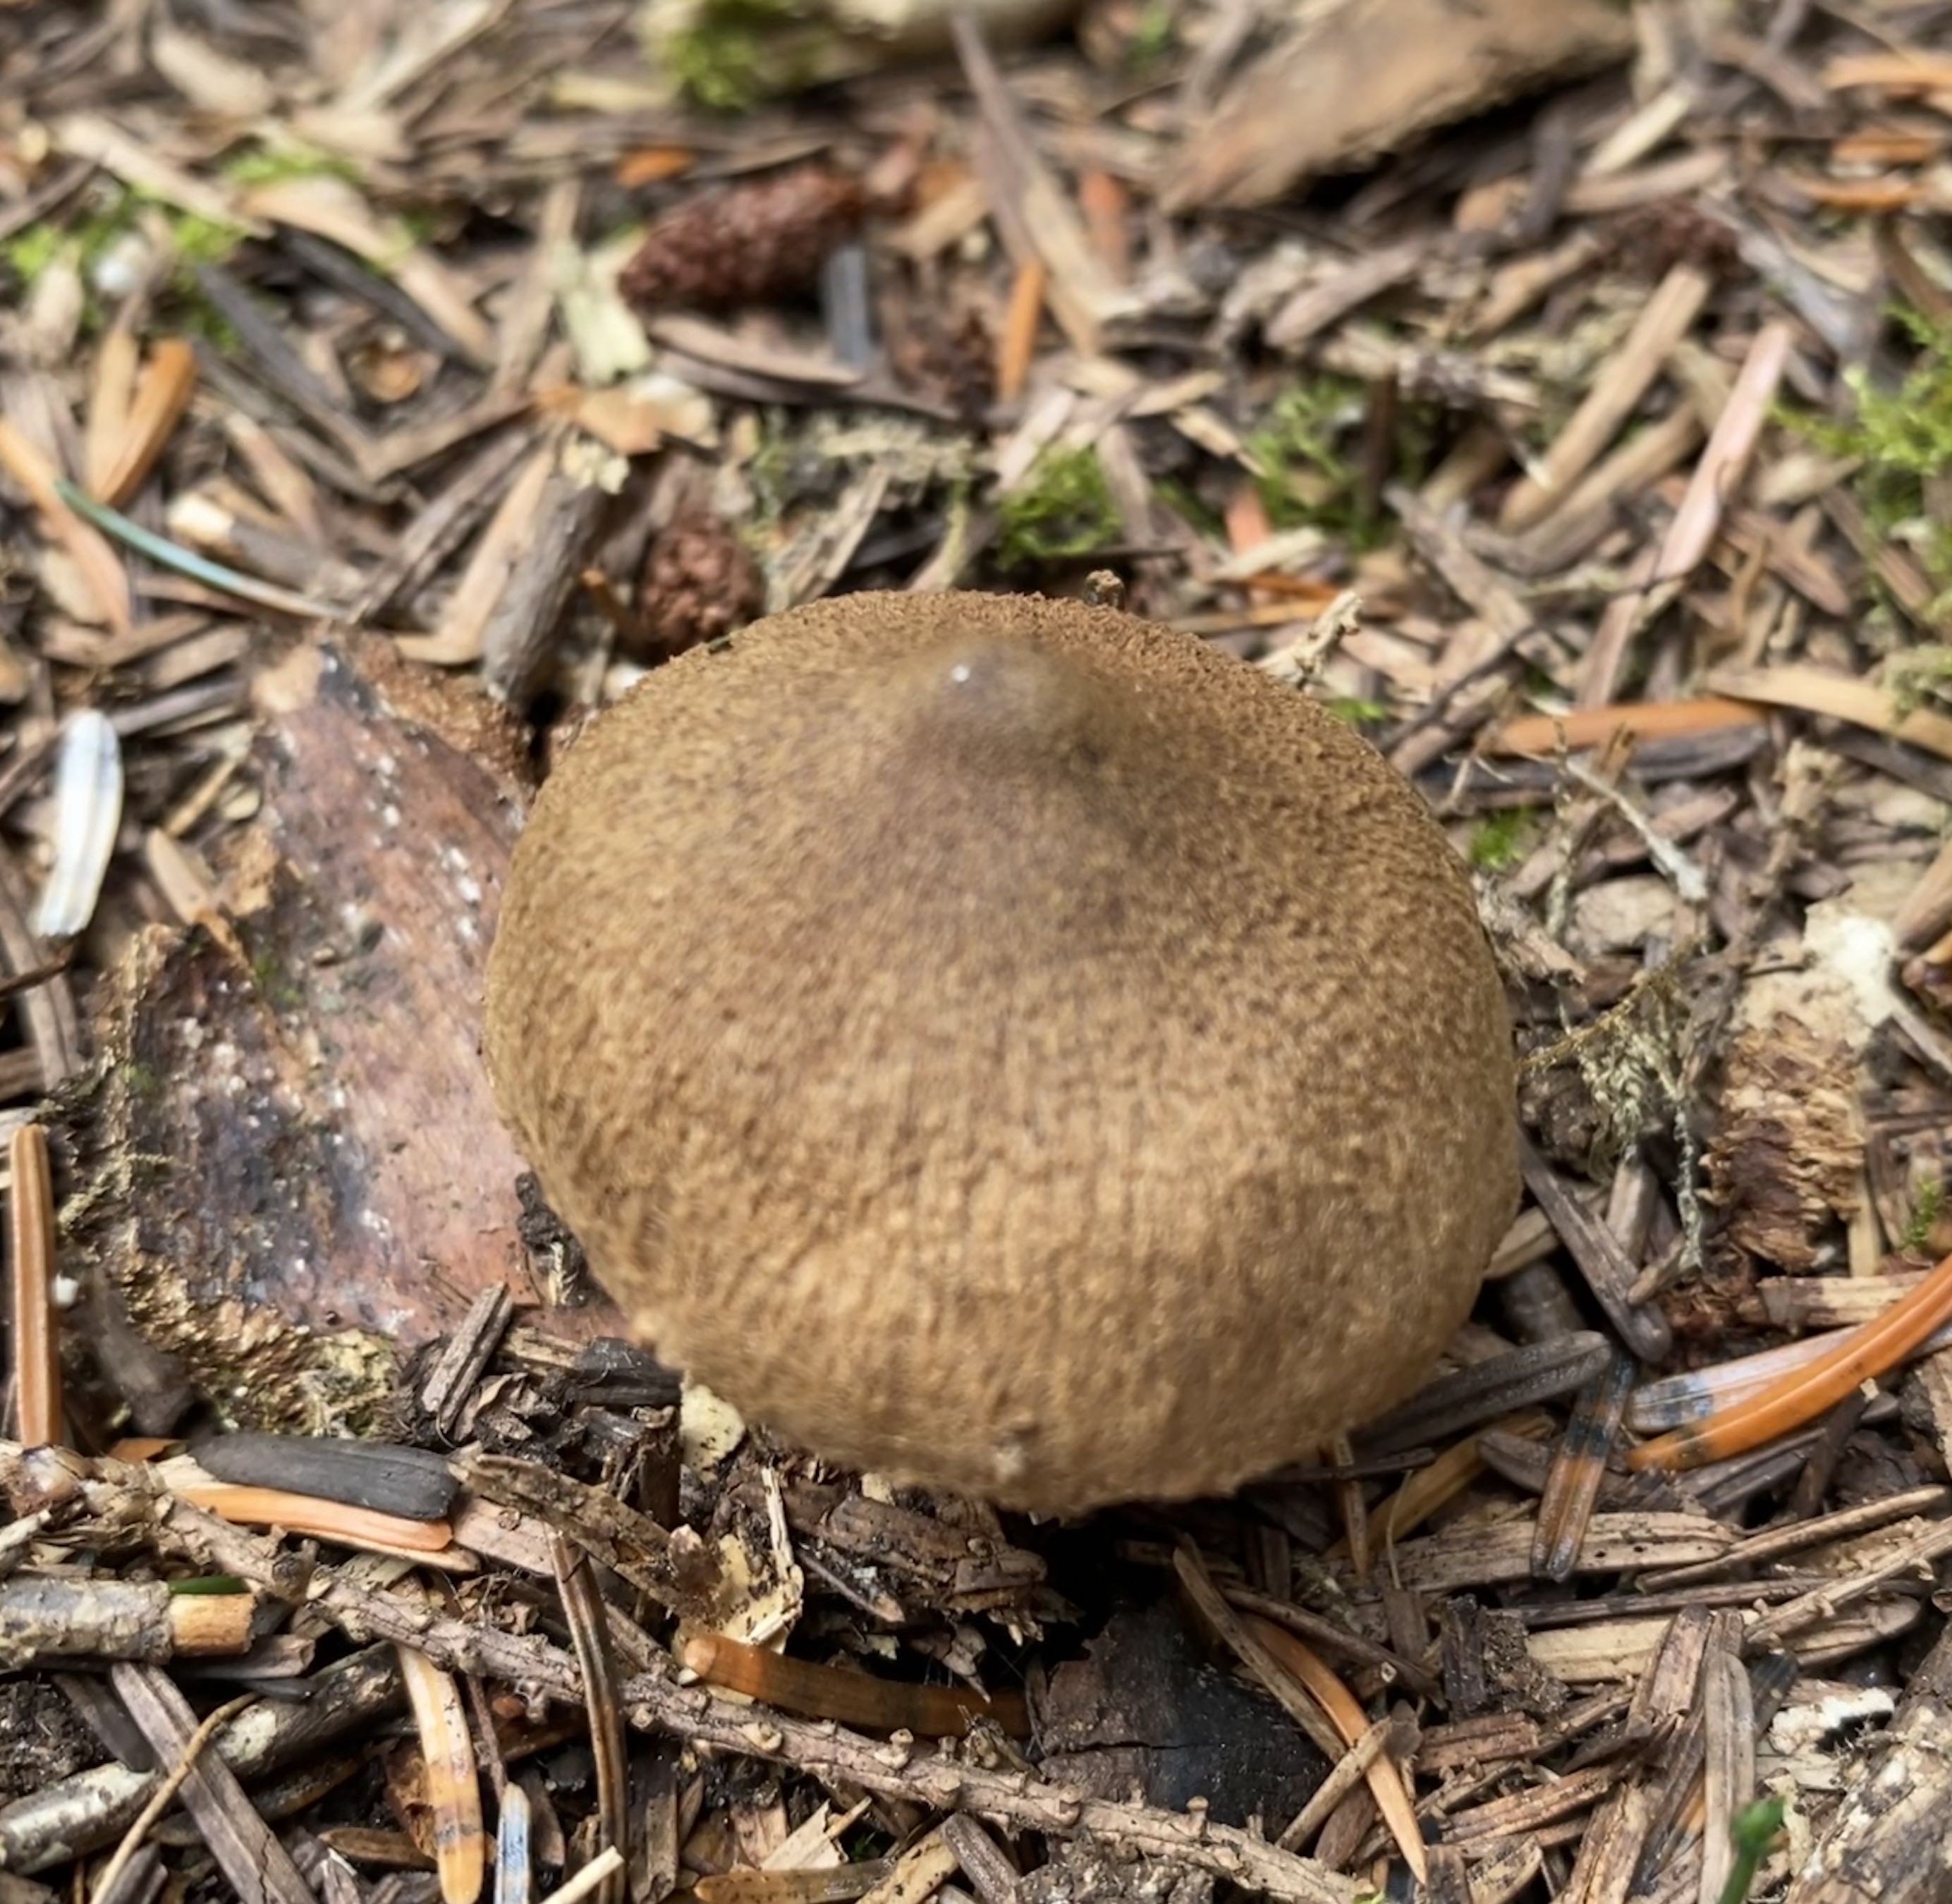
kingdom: Fungi
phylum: Basidiomycota
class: Agaricomycetes
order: Agaricales
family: Inocybaceae
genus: Inocybe
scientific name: Inocybe
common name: trævlhat
